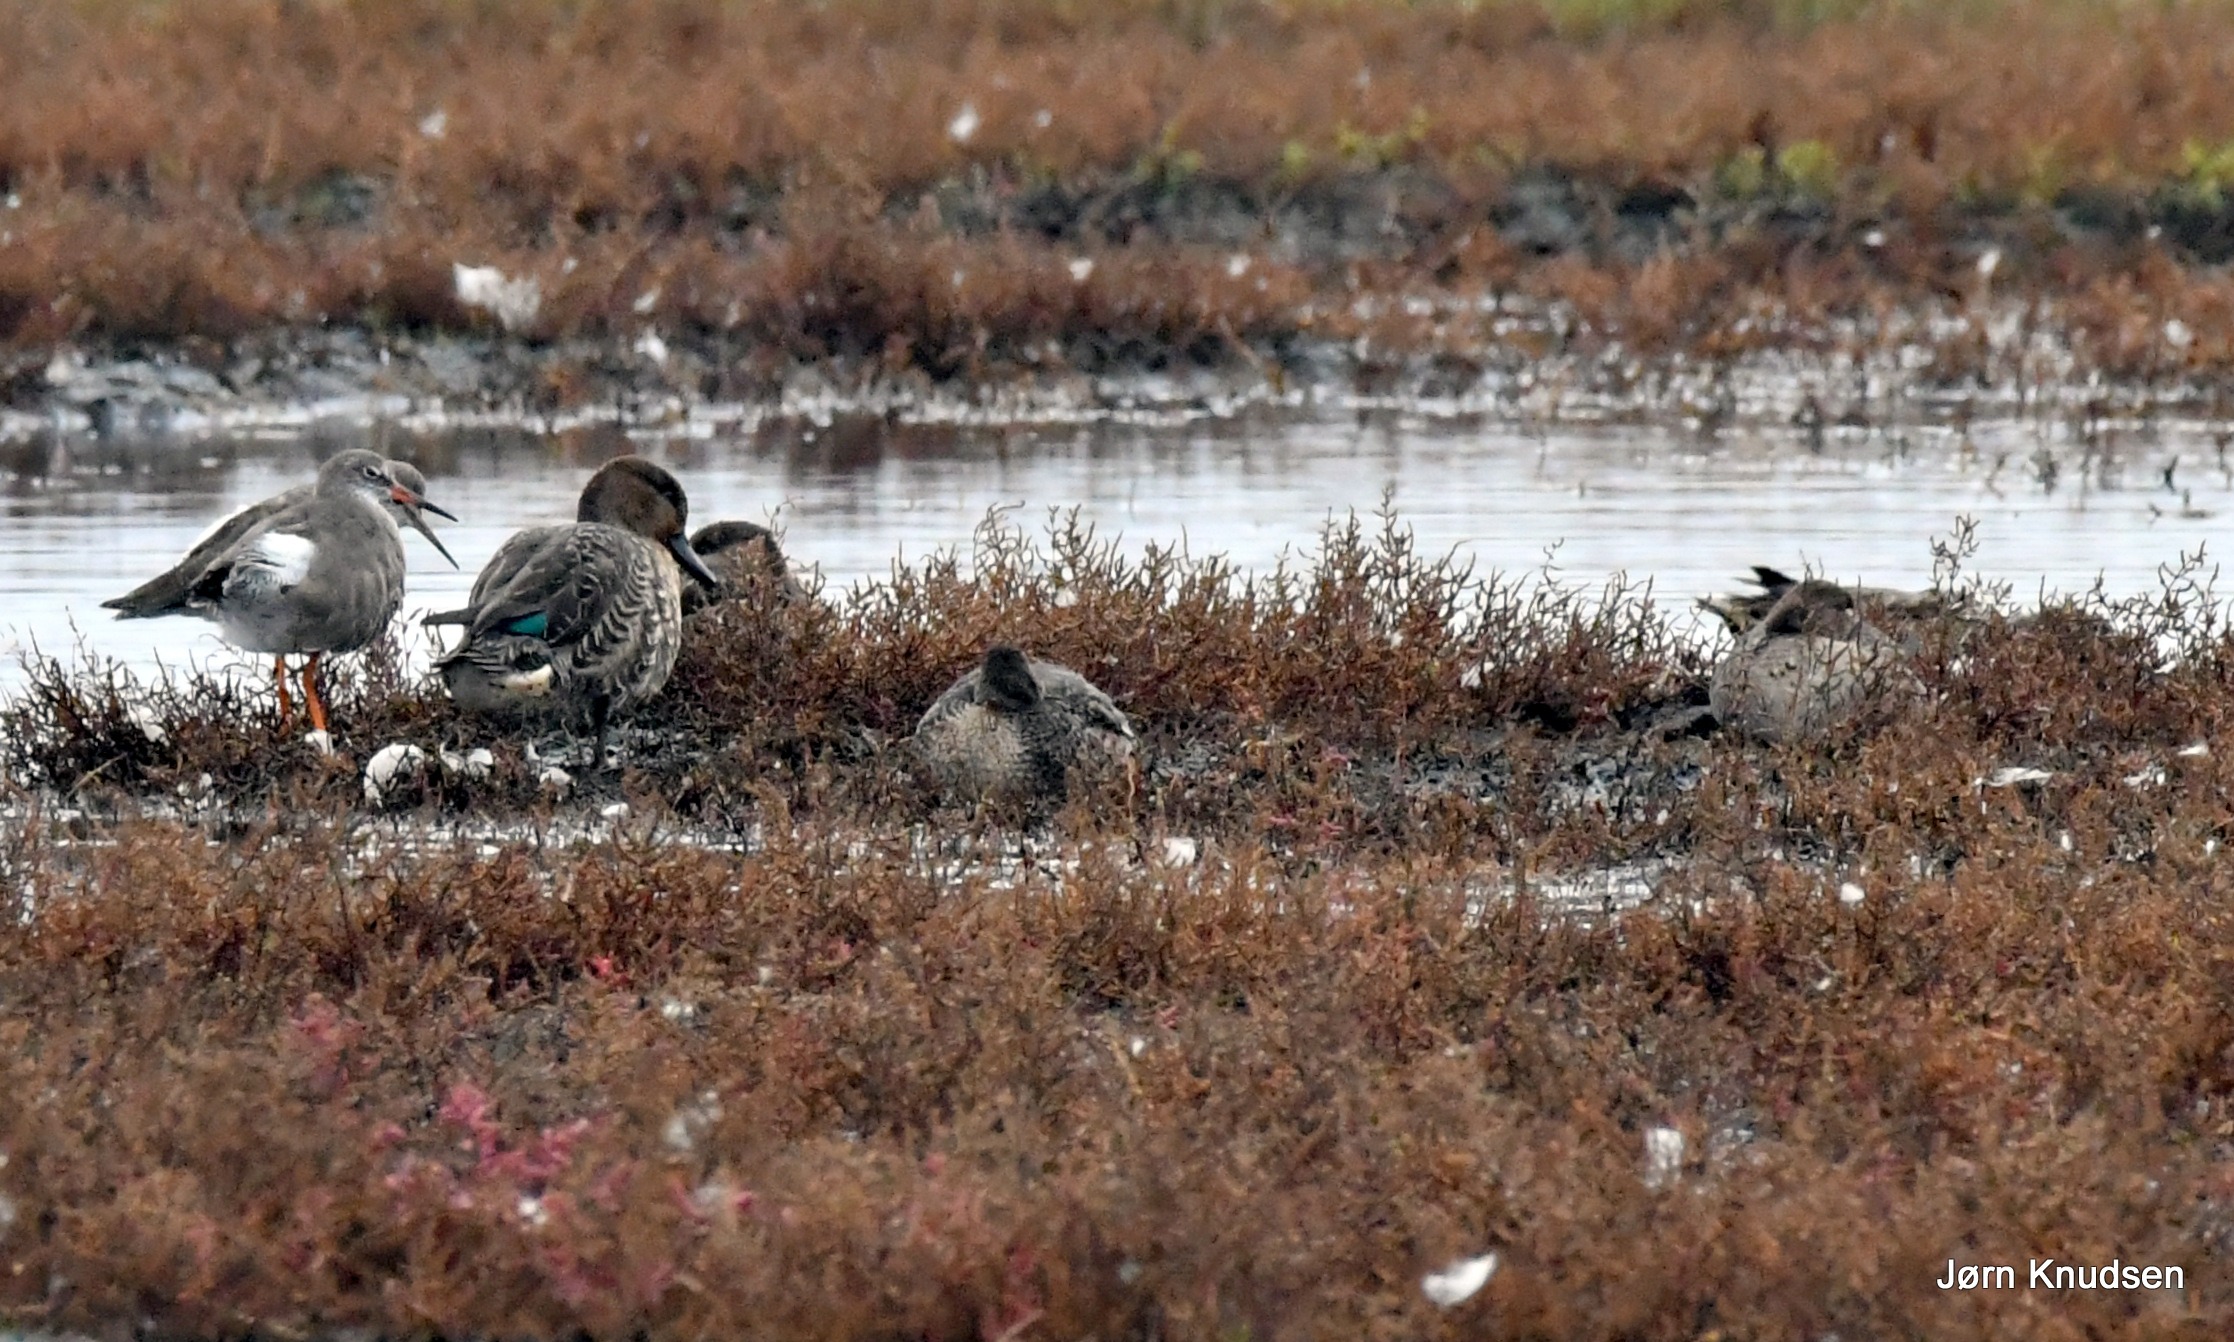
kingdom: Animalia
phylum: Chordata
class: Aves
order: Anseriformes
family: Anatidae
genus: Anas
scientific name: Anas crecca
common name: Krikand
